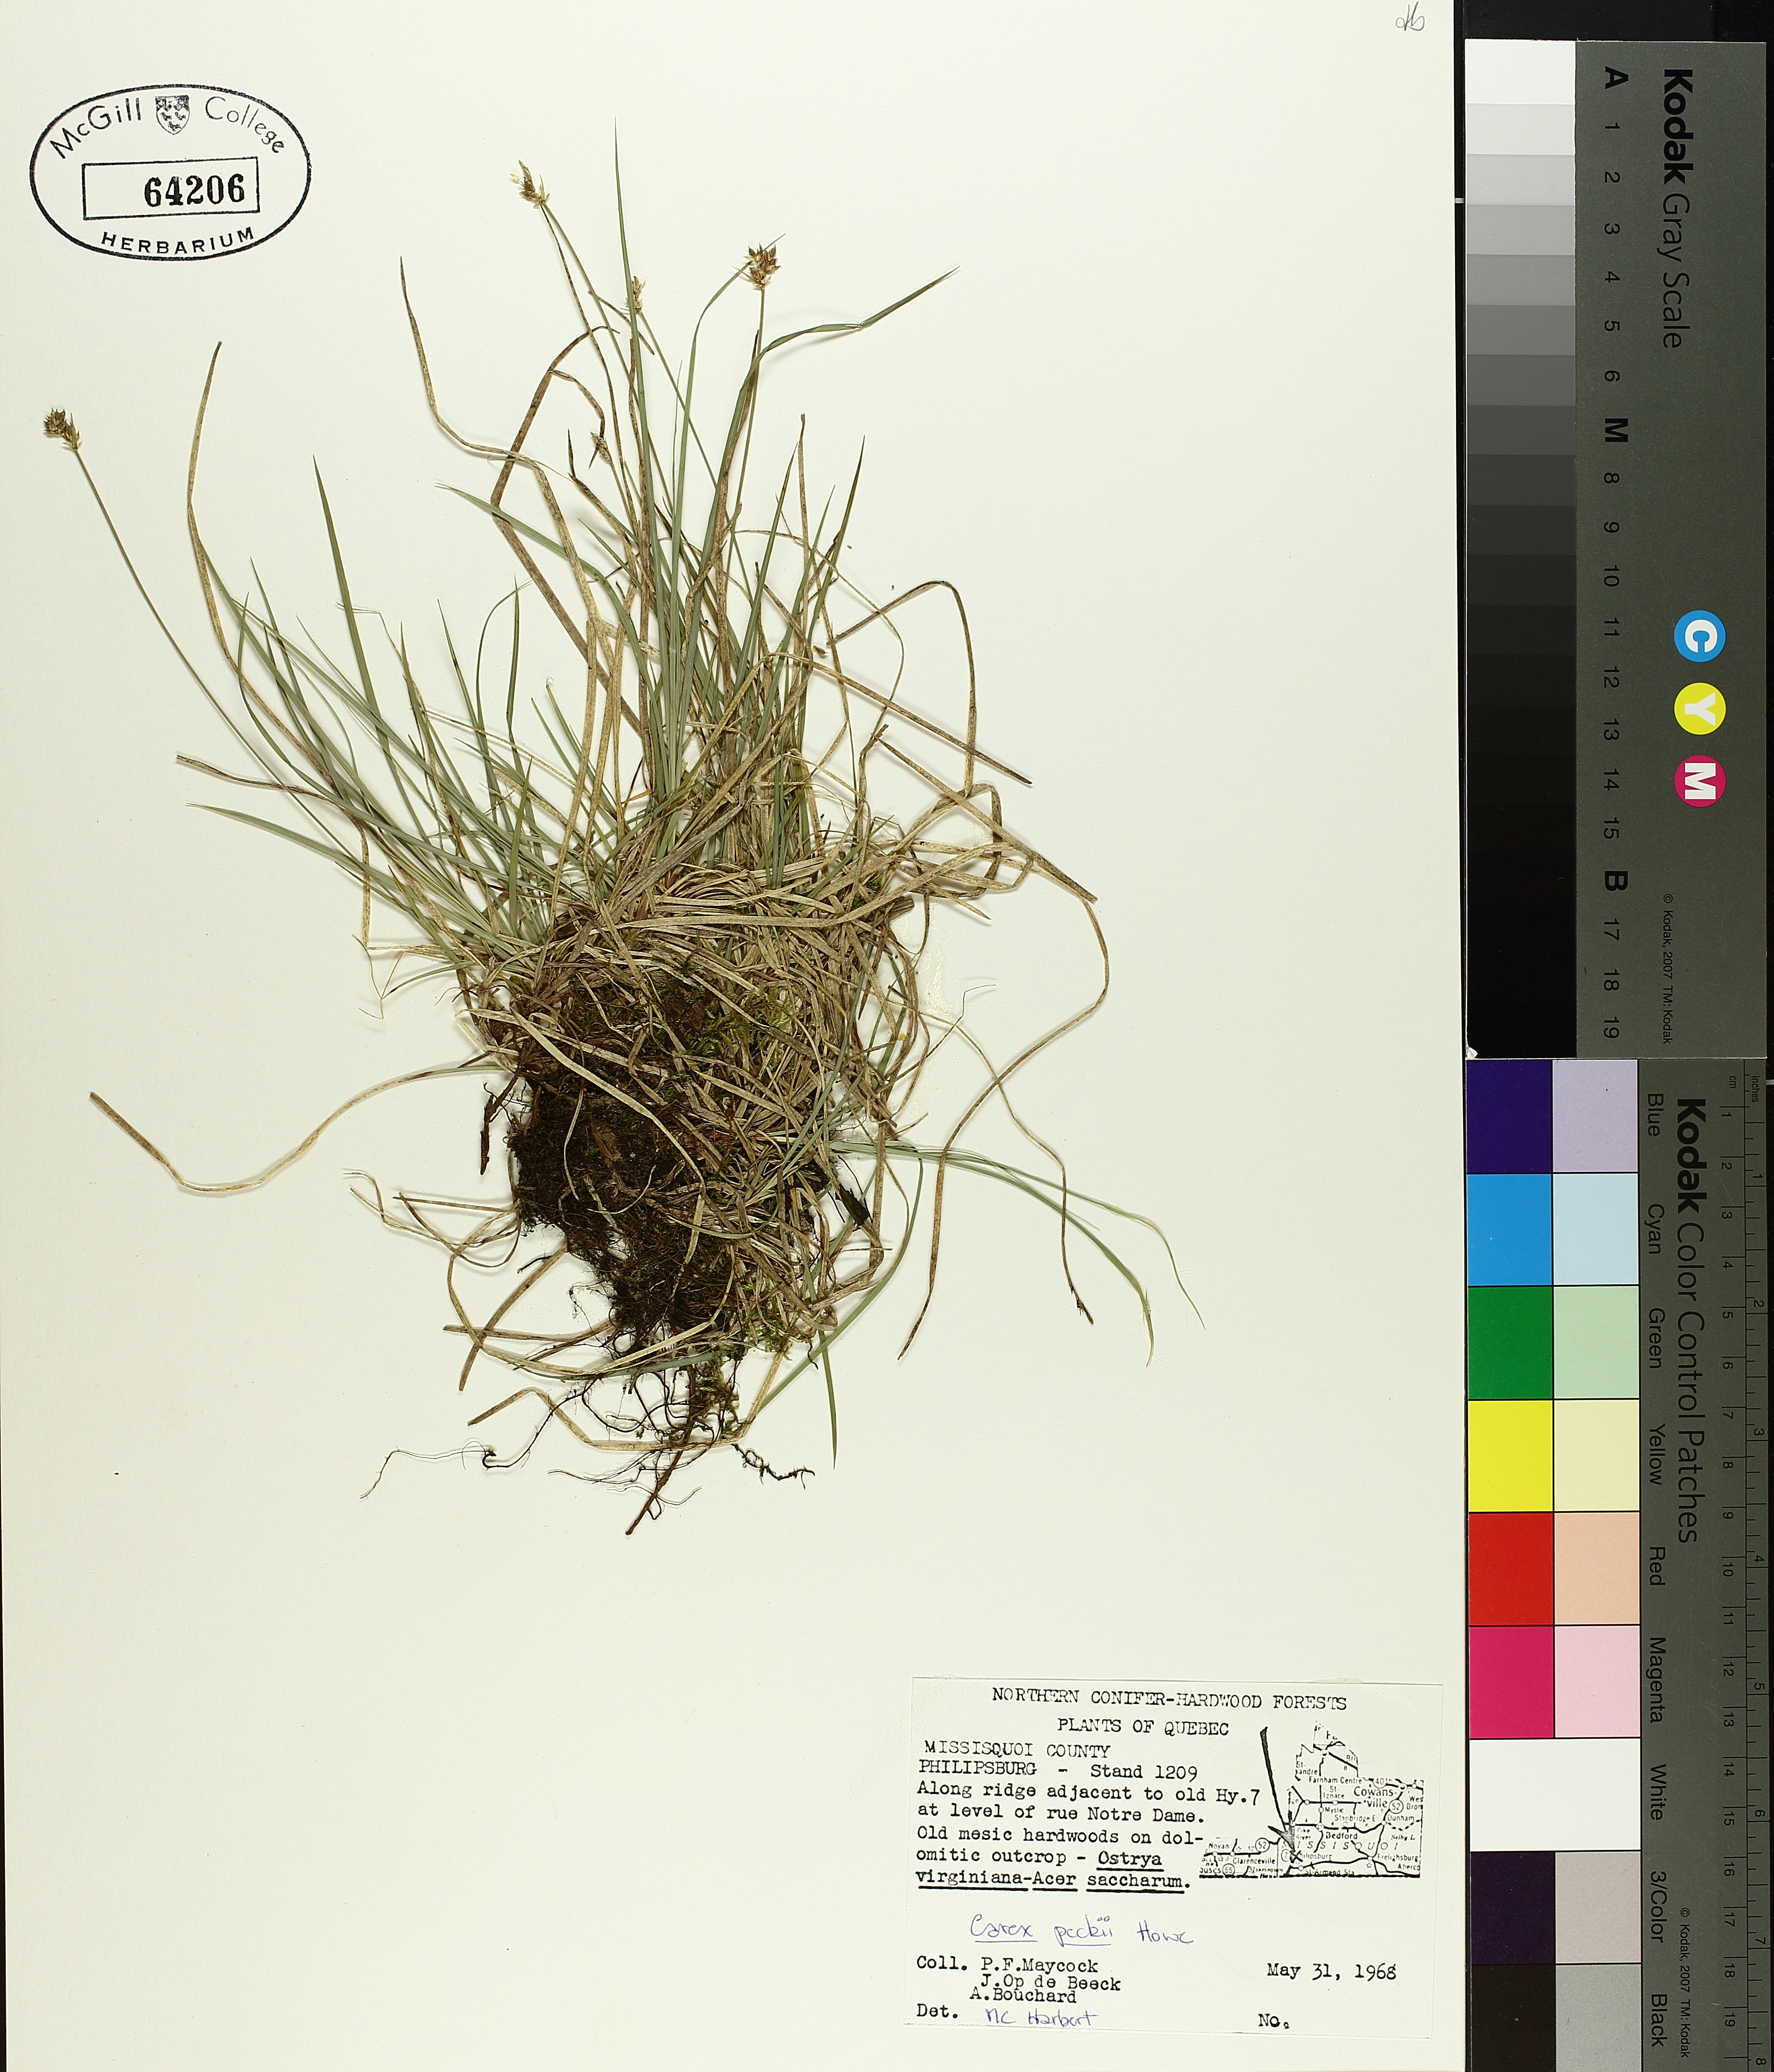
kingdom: Plantae
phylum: Tracheophyta
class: Liliopsida
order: Poales
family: Cyperaceae
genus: Carex
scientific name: Carex peckii
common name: Peck's oak sedge
